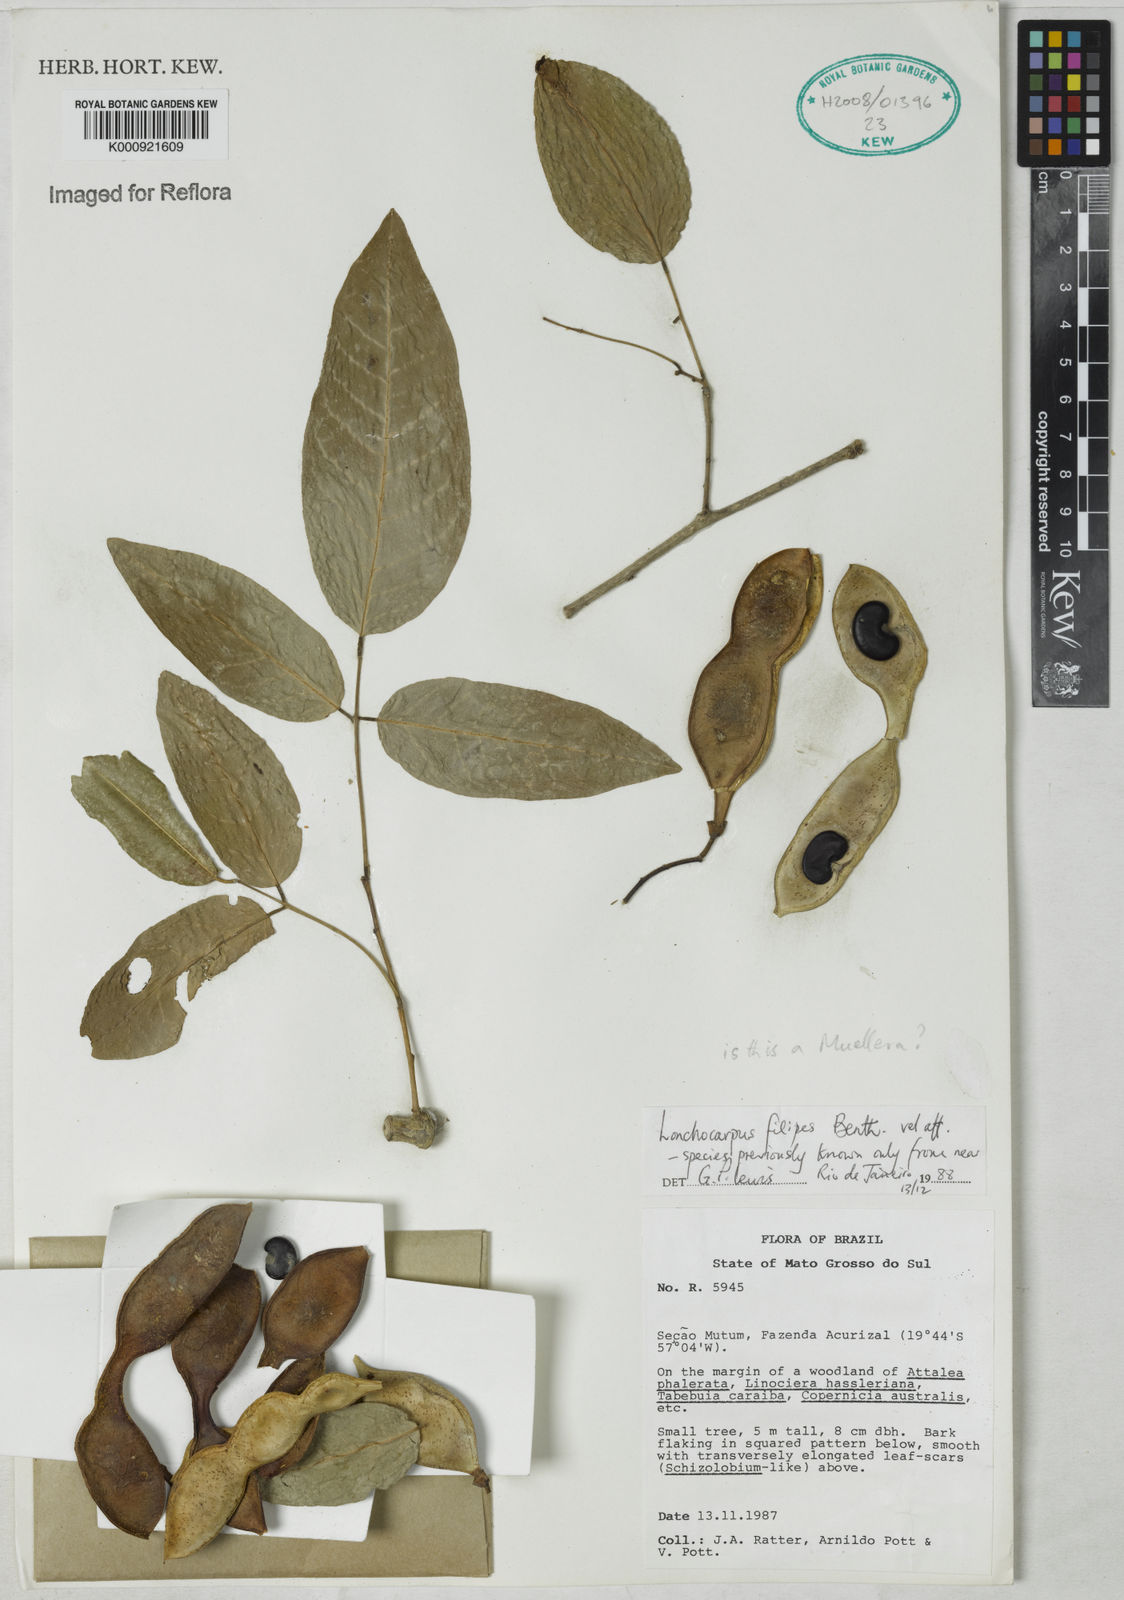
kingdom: Plantae
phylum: Tracheophyta
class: Magnoliopsida
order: Fabales
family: Fabaceae
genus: Muellera
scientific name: Muellera filipes
